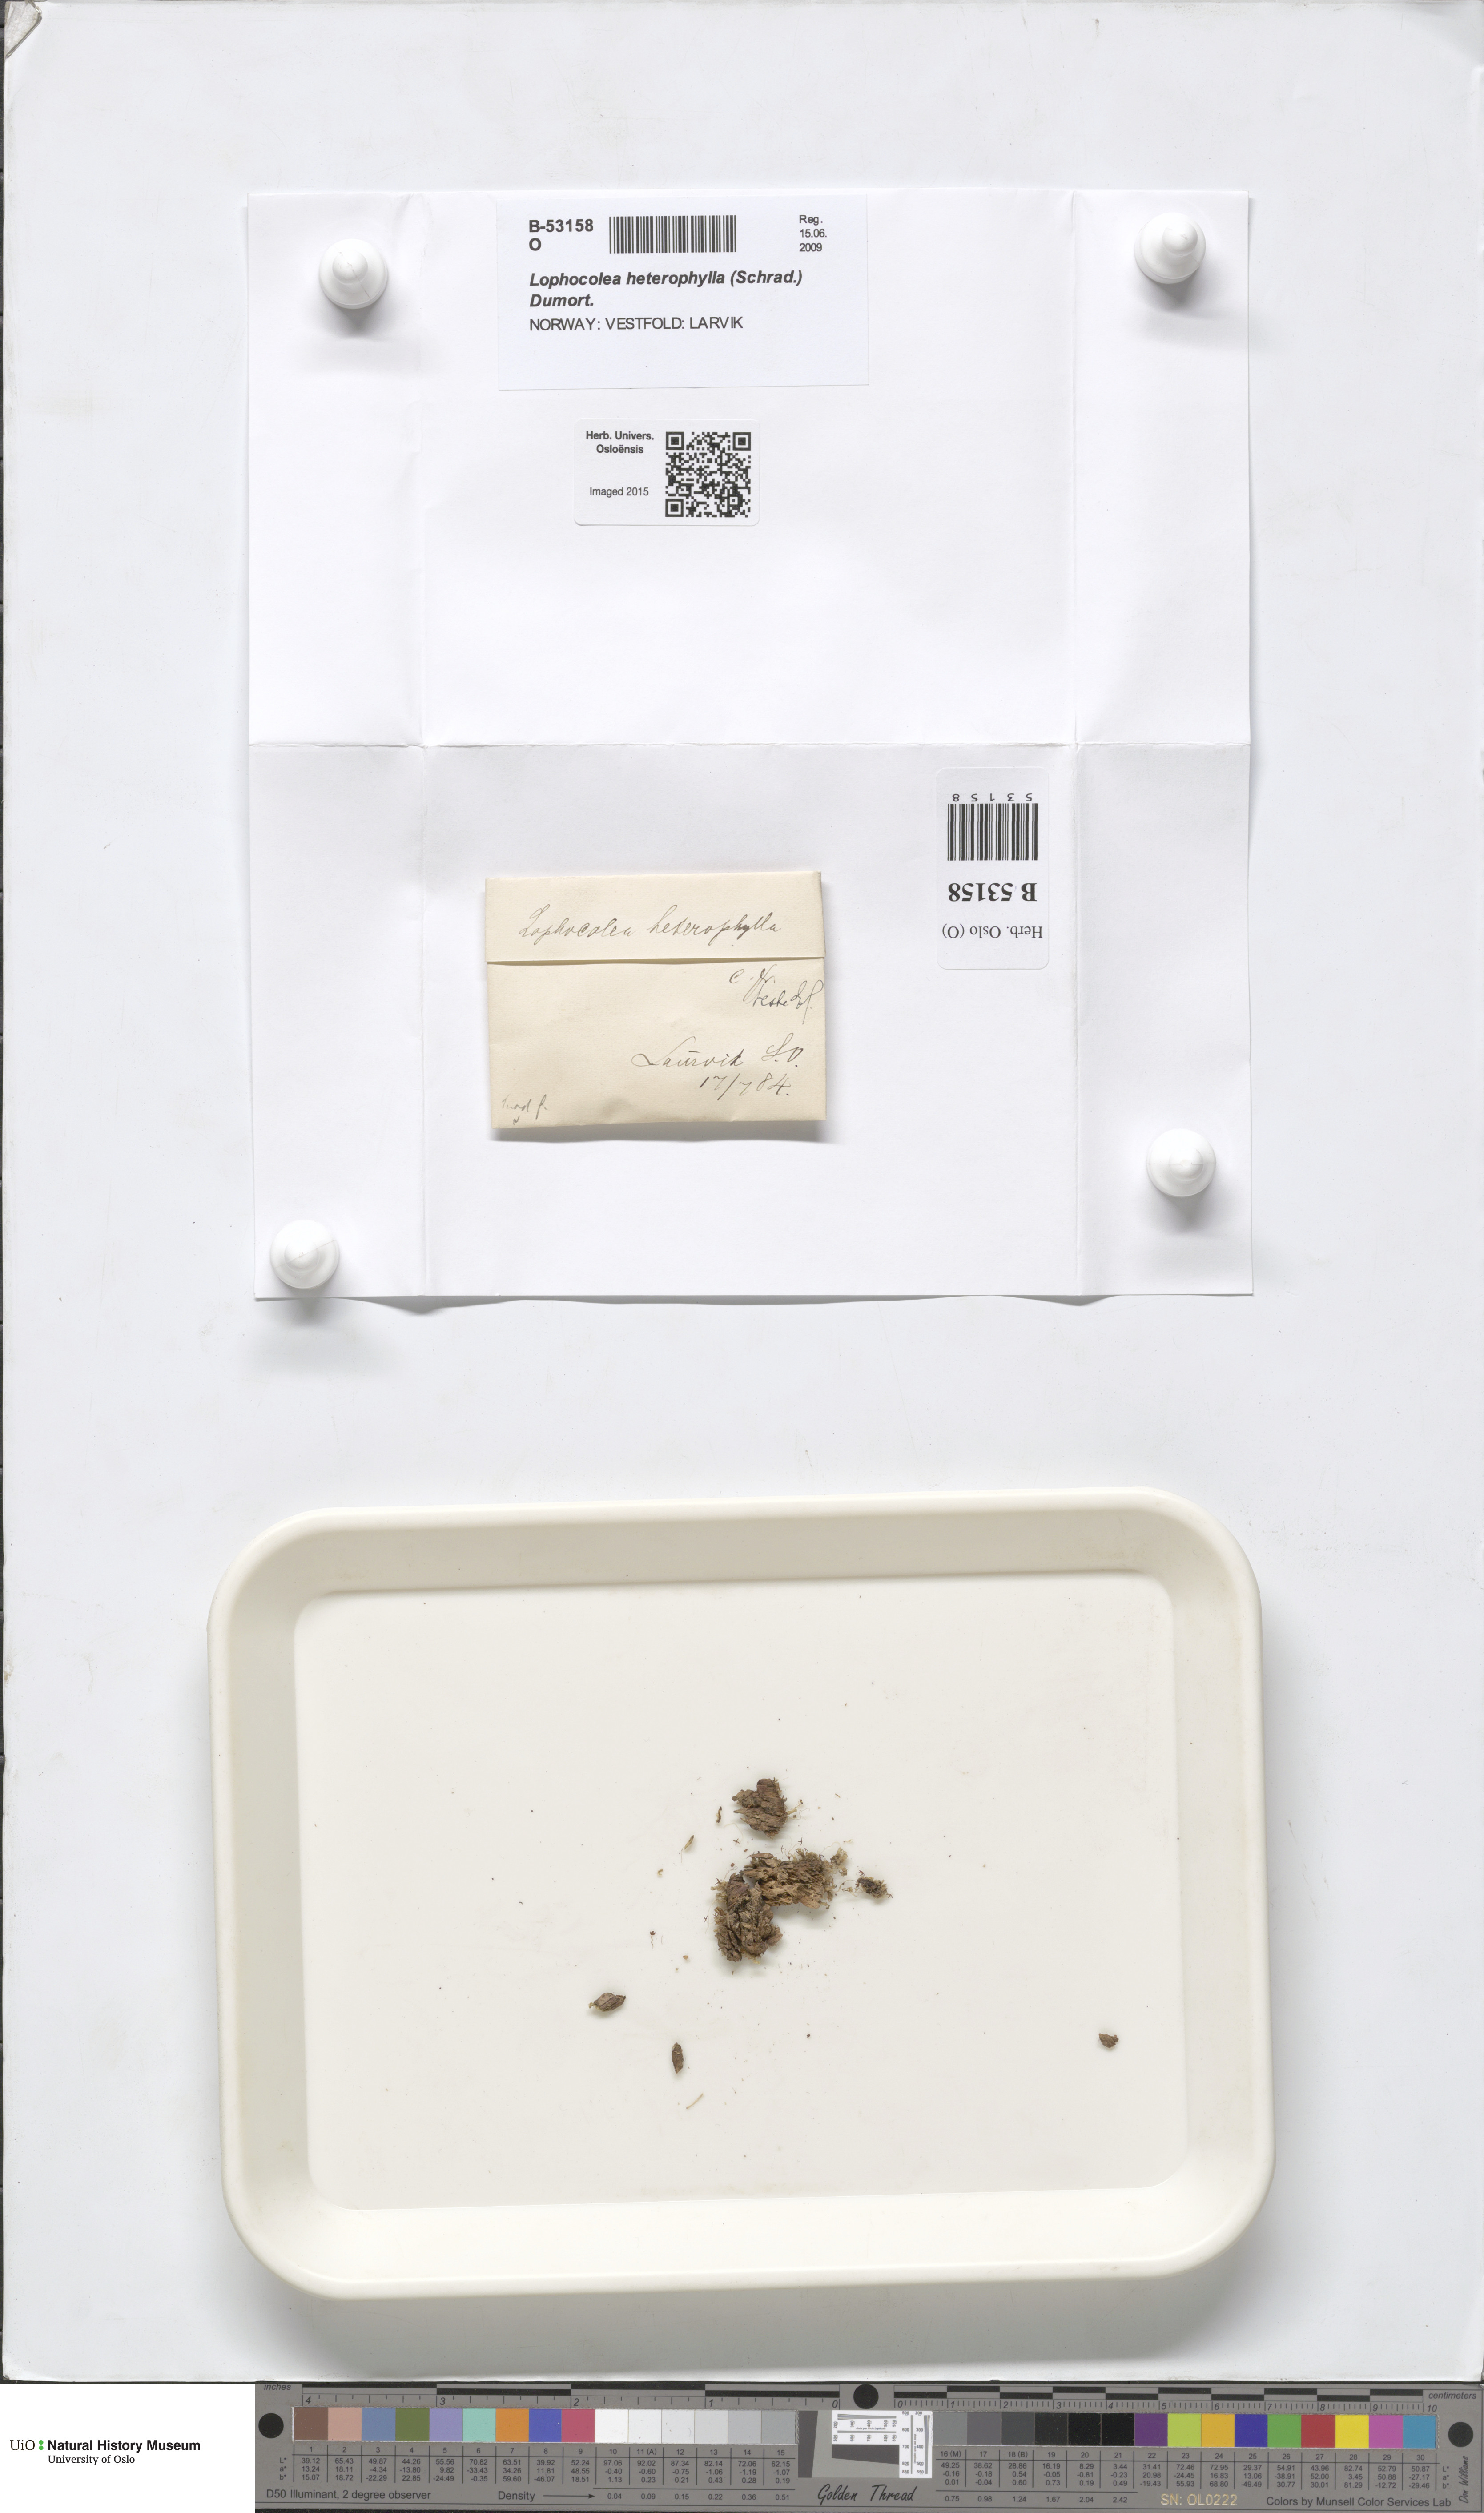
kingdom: Plantae
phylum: Marchantiophyta
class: Jungermanniopsida
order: Jungermanniales
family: Lophocoleaceae
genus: Lophocolea
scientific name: Lophocolea heterophylla
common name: Variable-leaved crestwort
